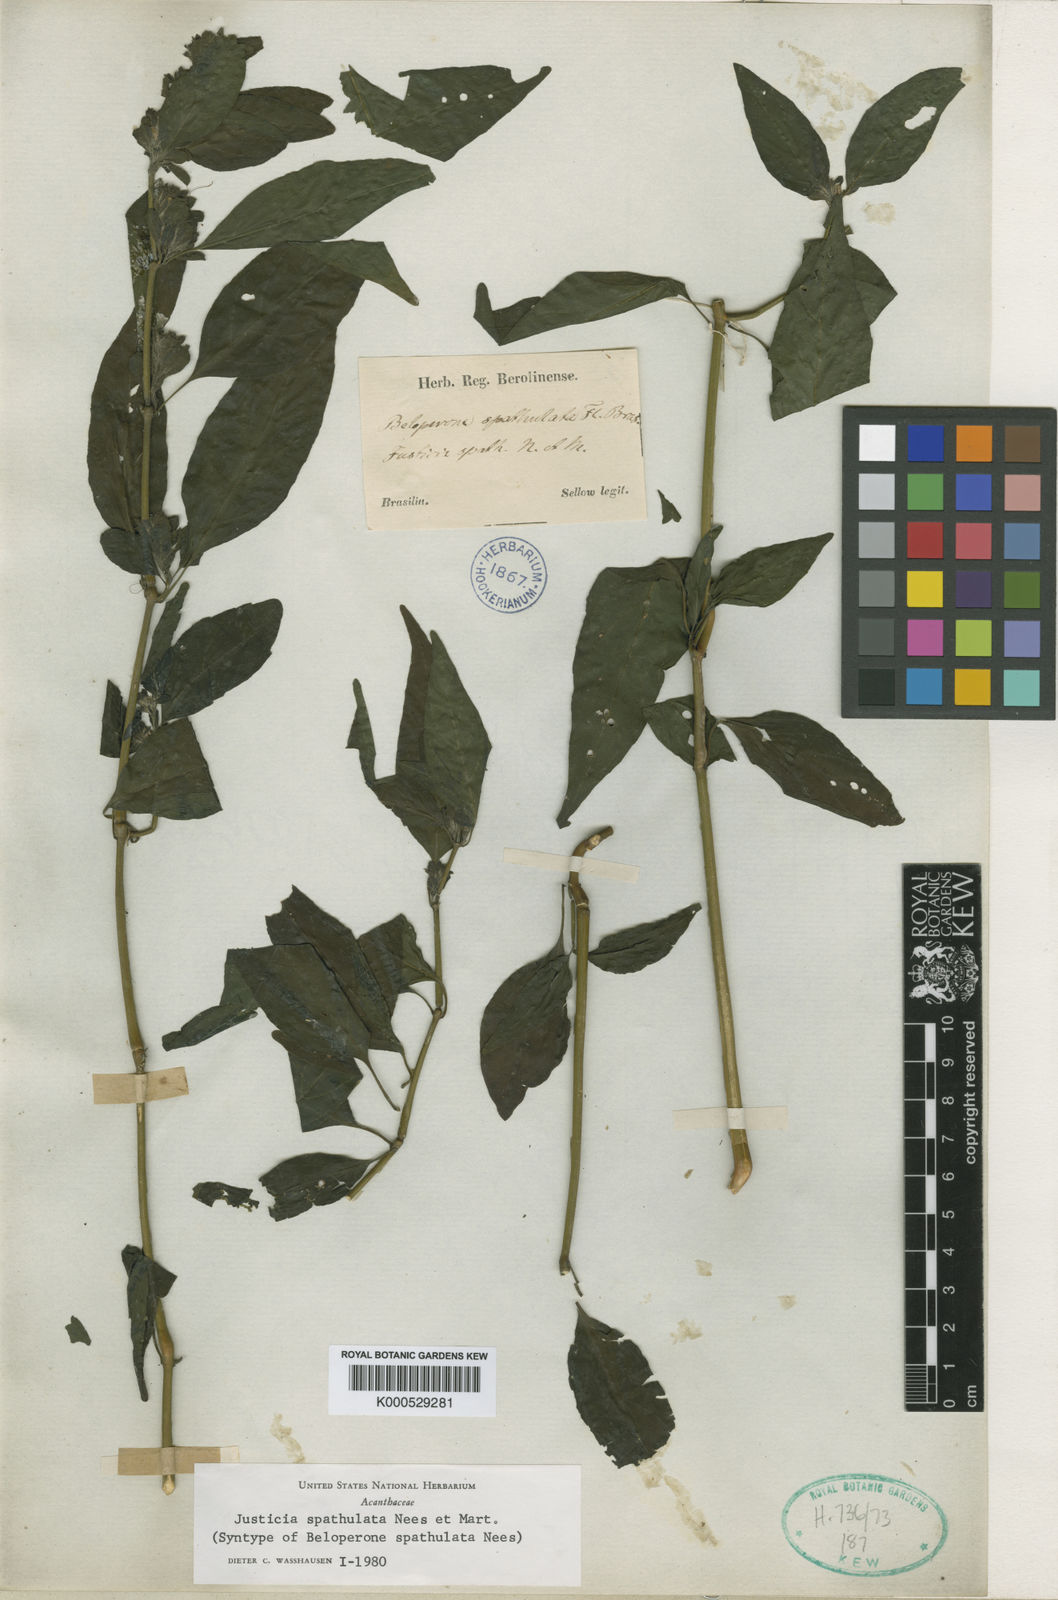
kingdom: Plantae
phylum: Tracheophyta
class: Magnoliopsida
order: Lamiales
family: Acanthaceae
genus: Poikilacanthus
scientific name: Poikilacanthus glandulosus
